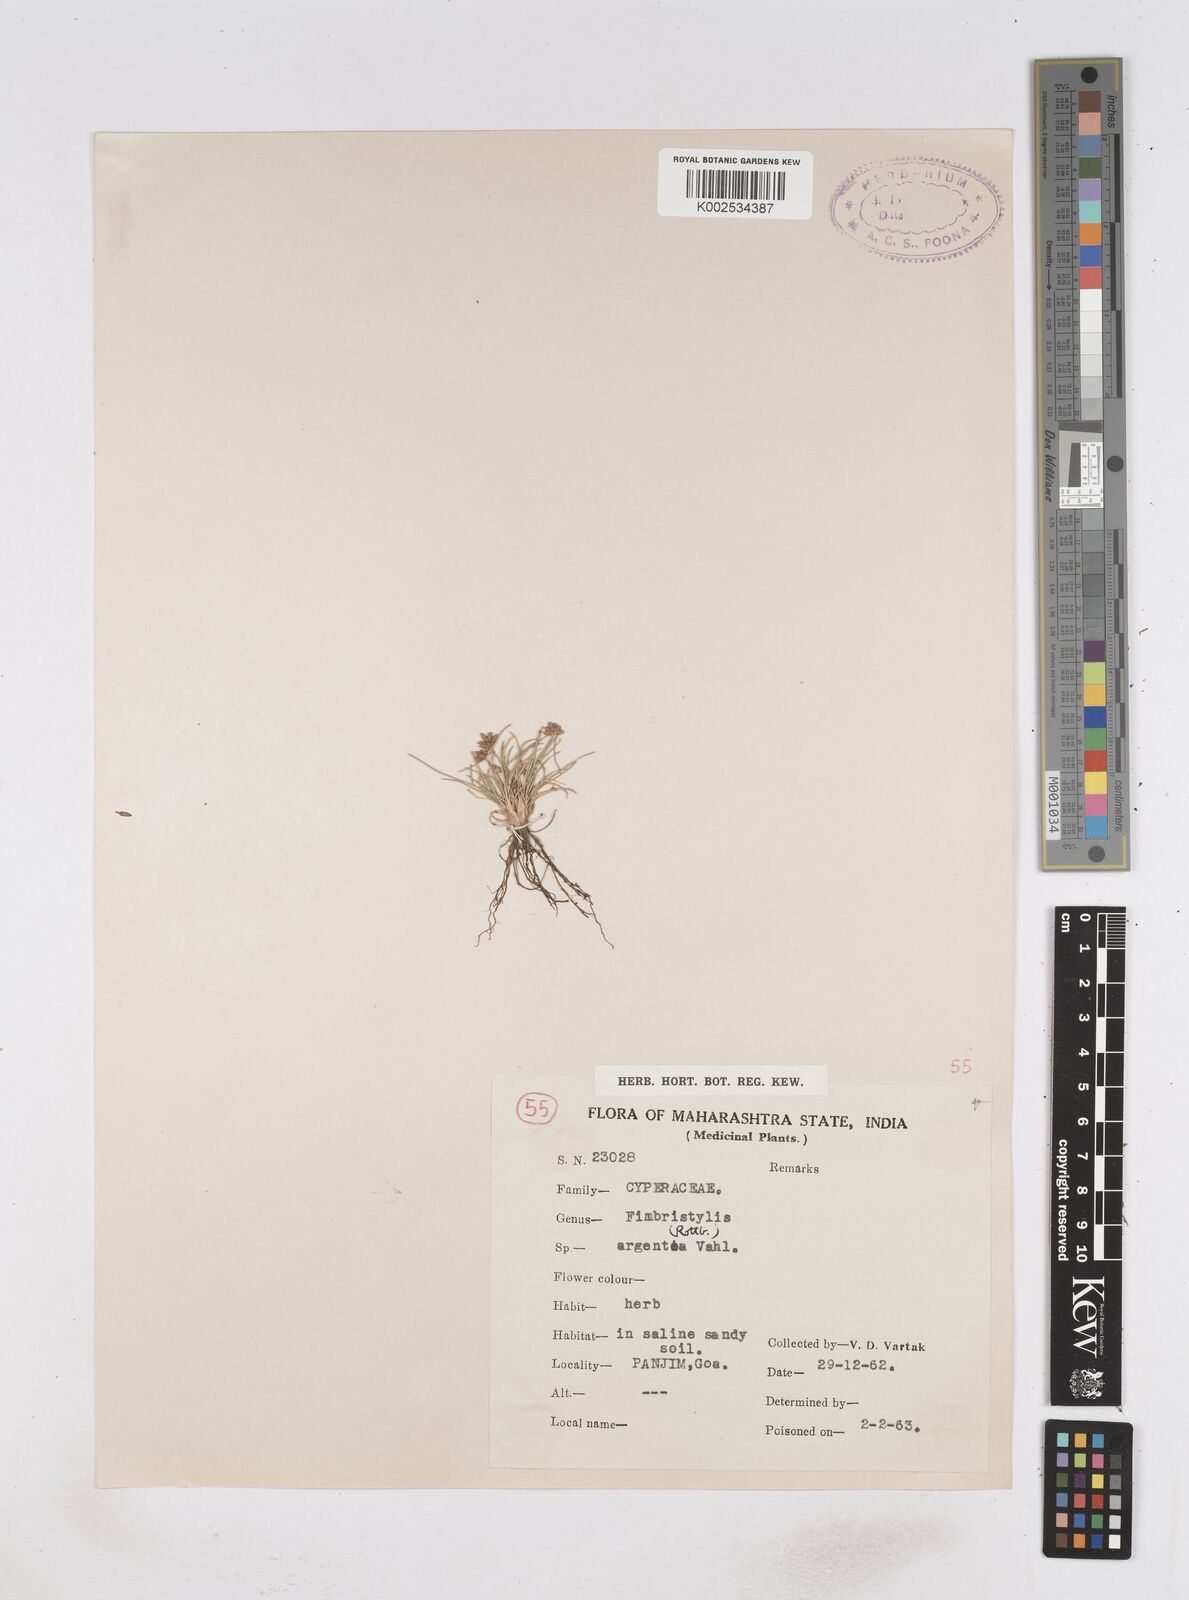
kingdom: Plantae
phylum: Tracheophyta
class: Liliopsida
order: Poales
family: Cyperaceae
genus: Fimbristylis
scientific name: Fimbristylis argentea
